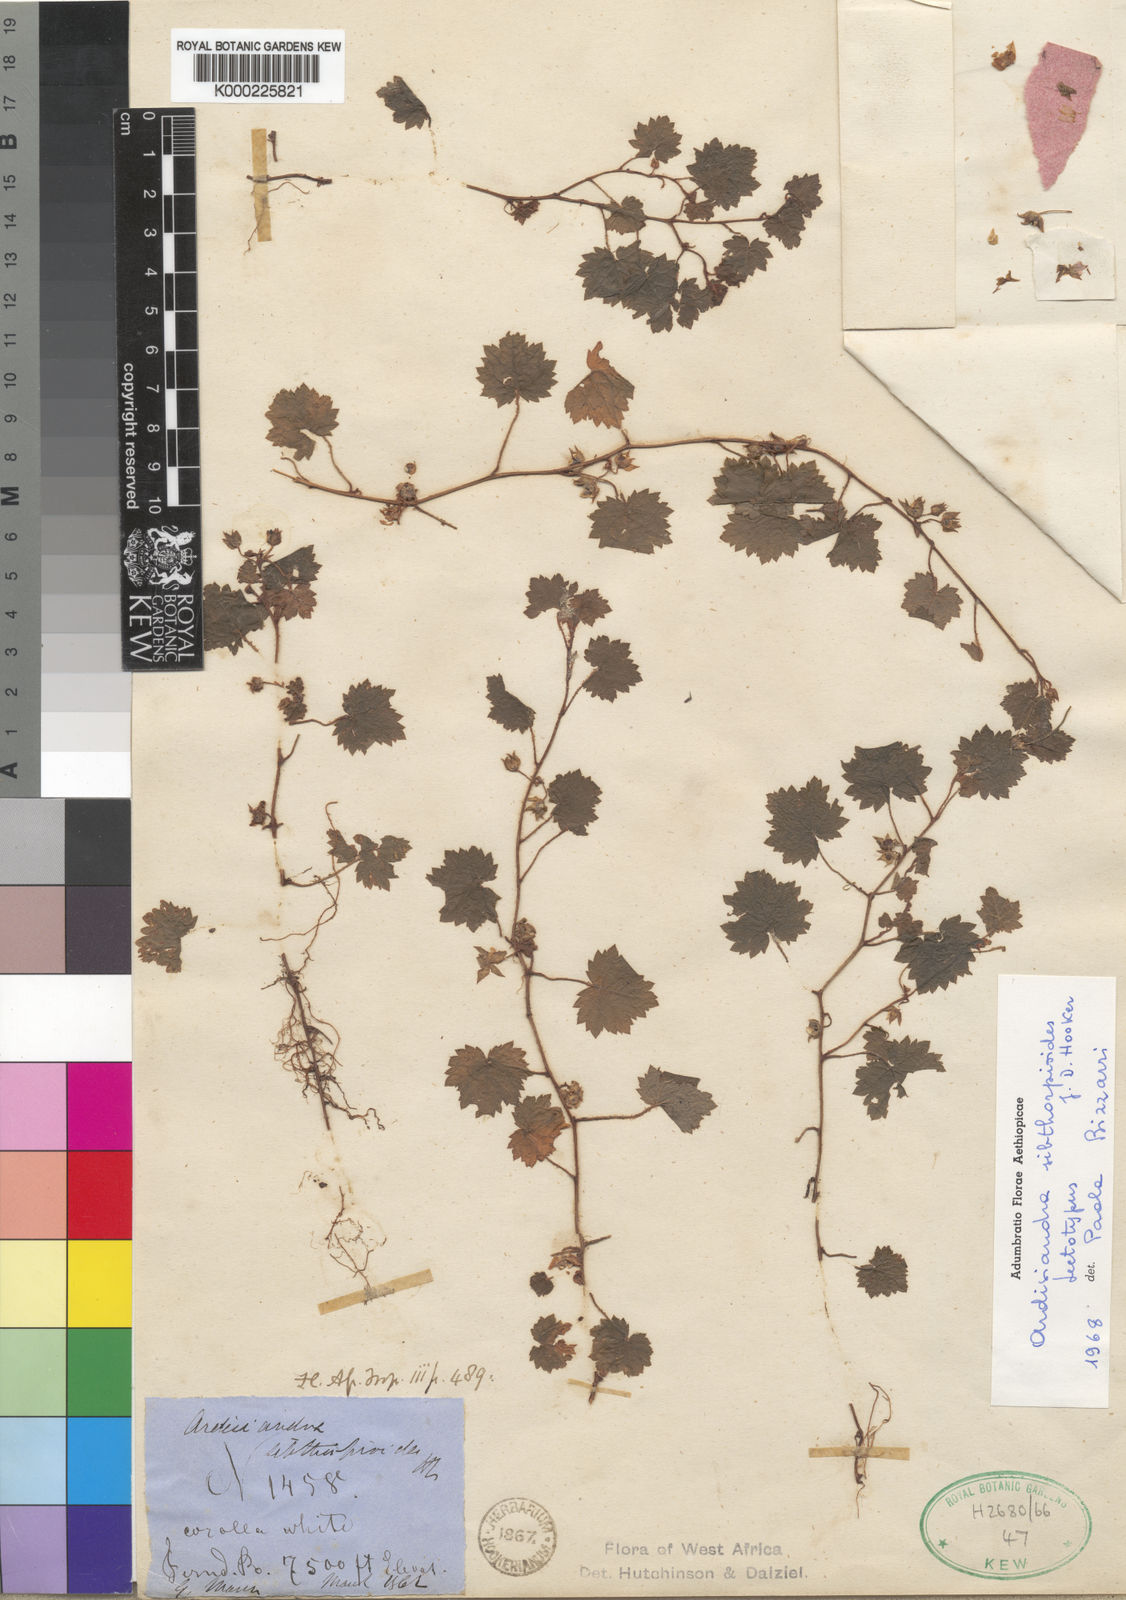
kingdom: Plantae
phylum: Tracheophyta
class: Magnoliopsida
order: Ericales
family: Primulaceae
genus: Ardisiandra
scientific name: Ardisiandra sibthorpioides
